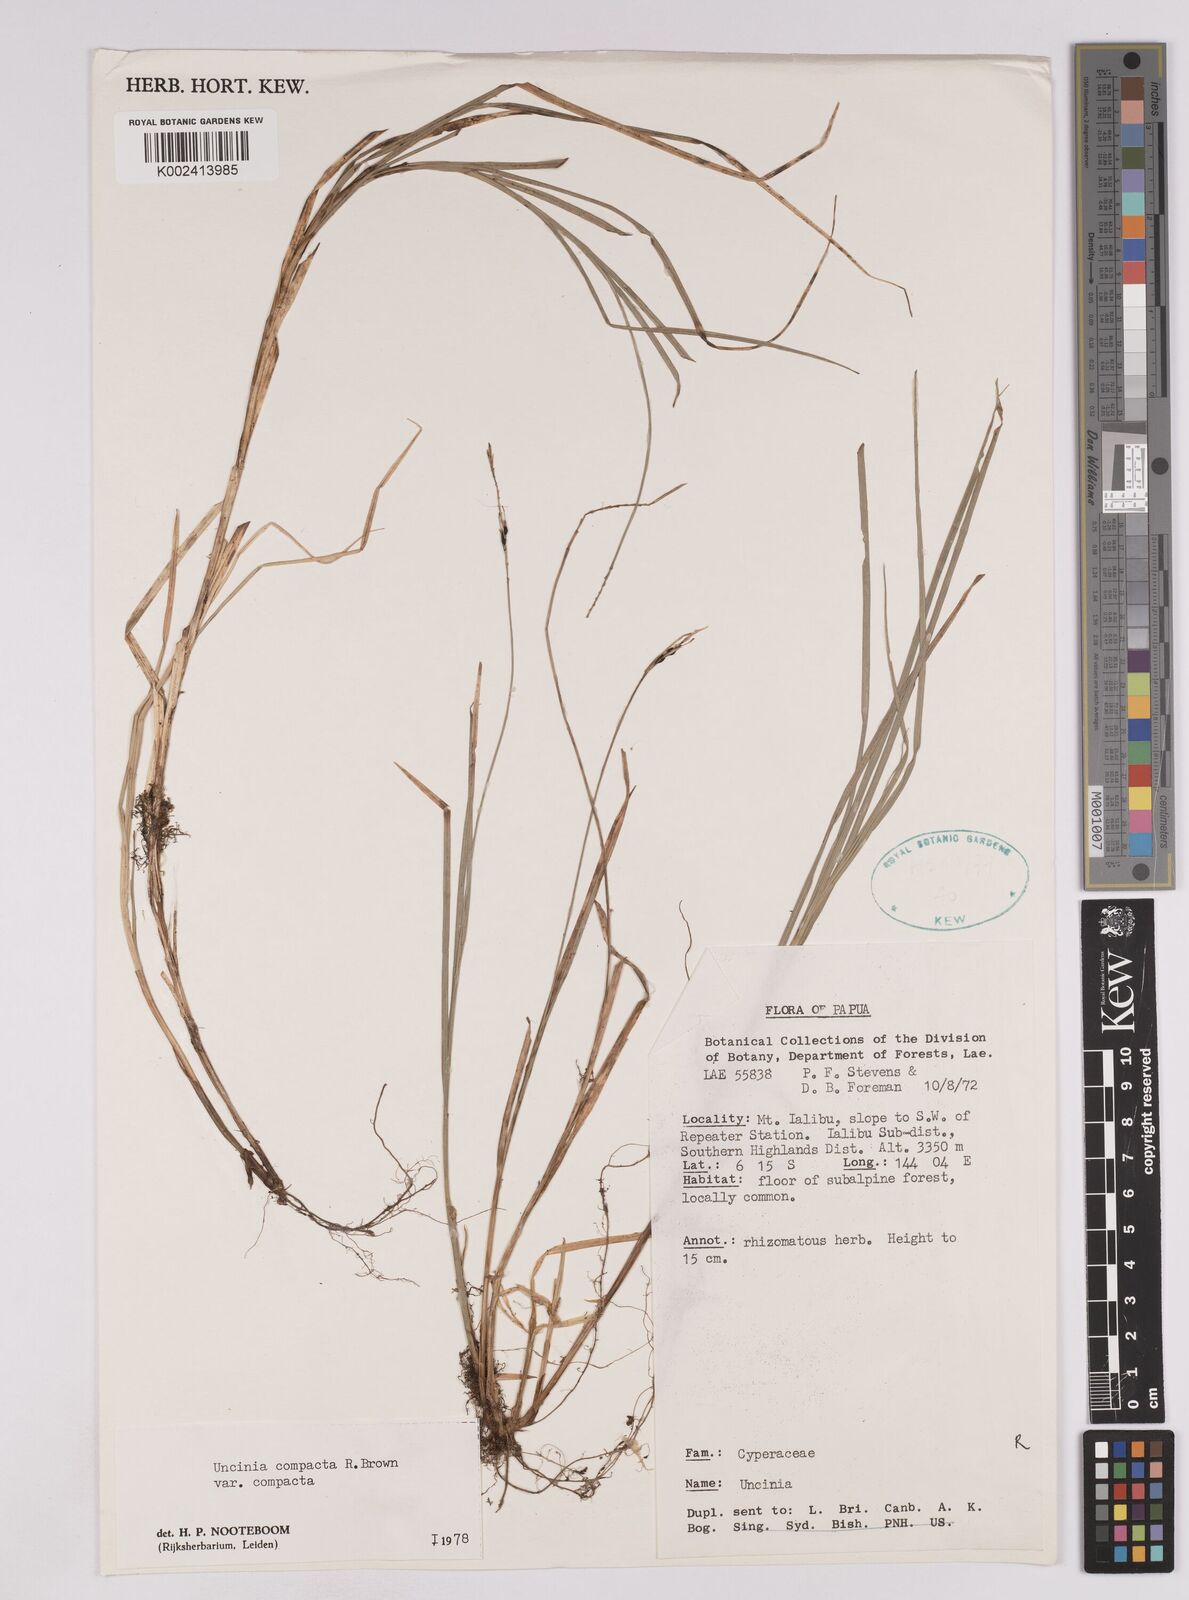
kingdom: Plantae
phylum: Tracheophyta
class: Liliopsida
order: Poales
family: Cyperaceae
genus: Carex
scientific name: Carex austrocompacta
